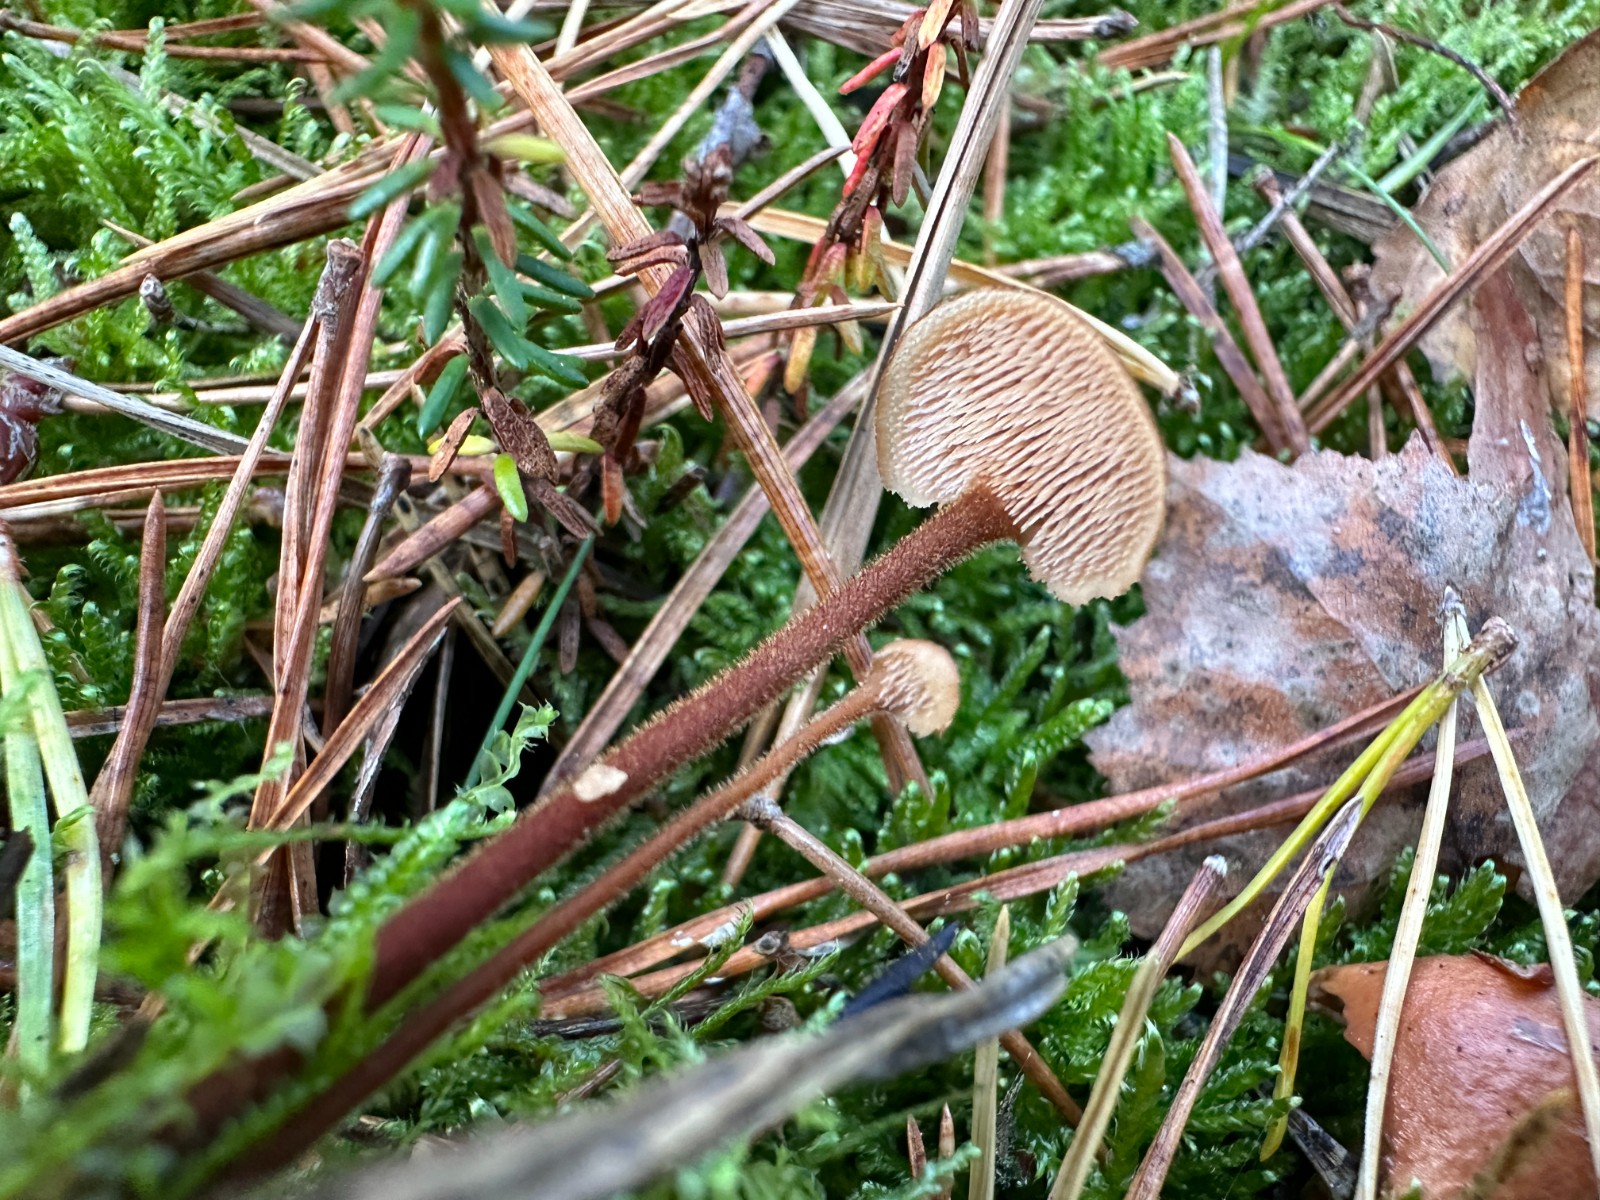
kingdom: Fungi
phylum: Basidiomycota
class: Agaricomycetes
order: Russulales
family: Auriscalpiaceae
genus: Auriscalpium
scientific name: Auriscalpium vulgare
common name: koglepigsvamp
